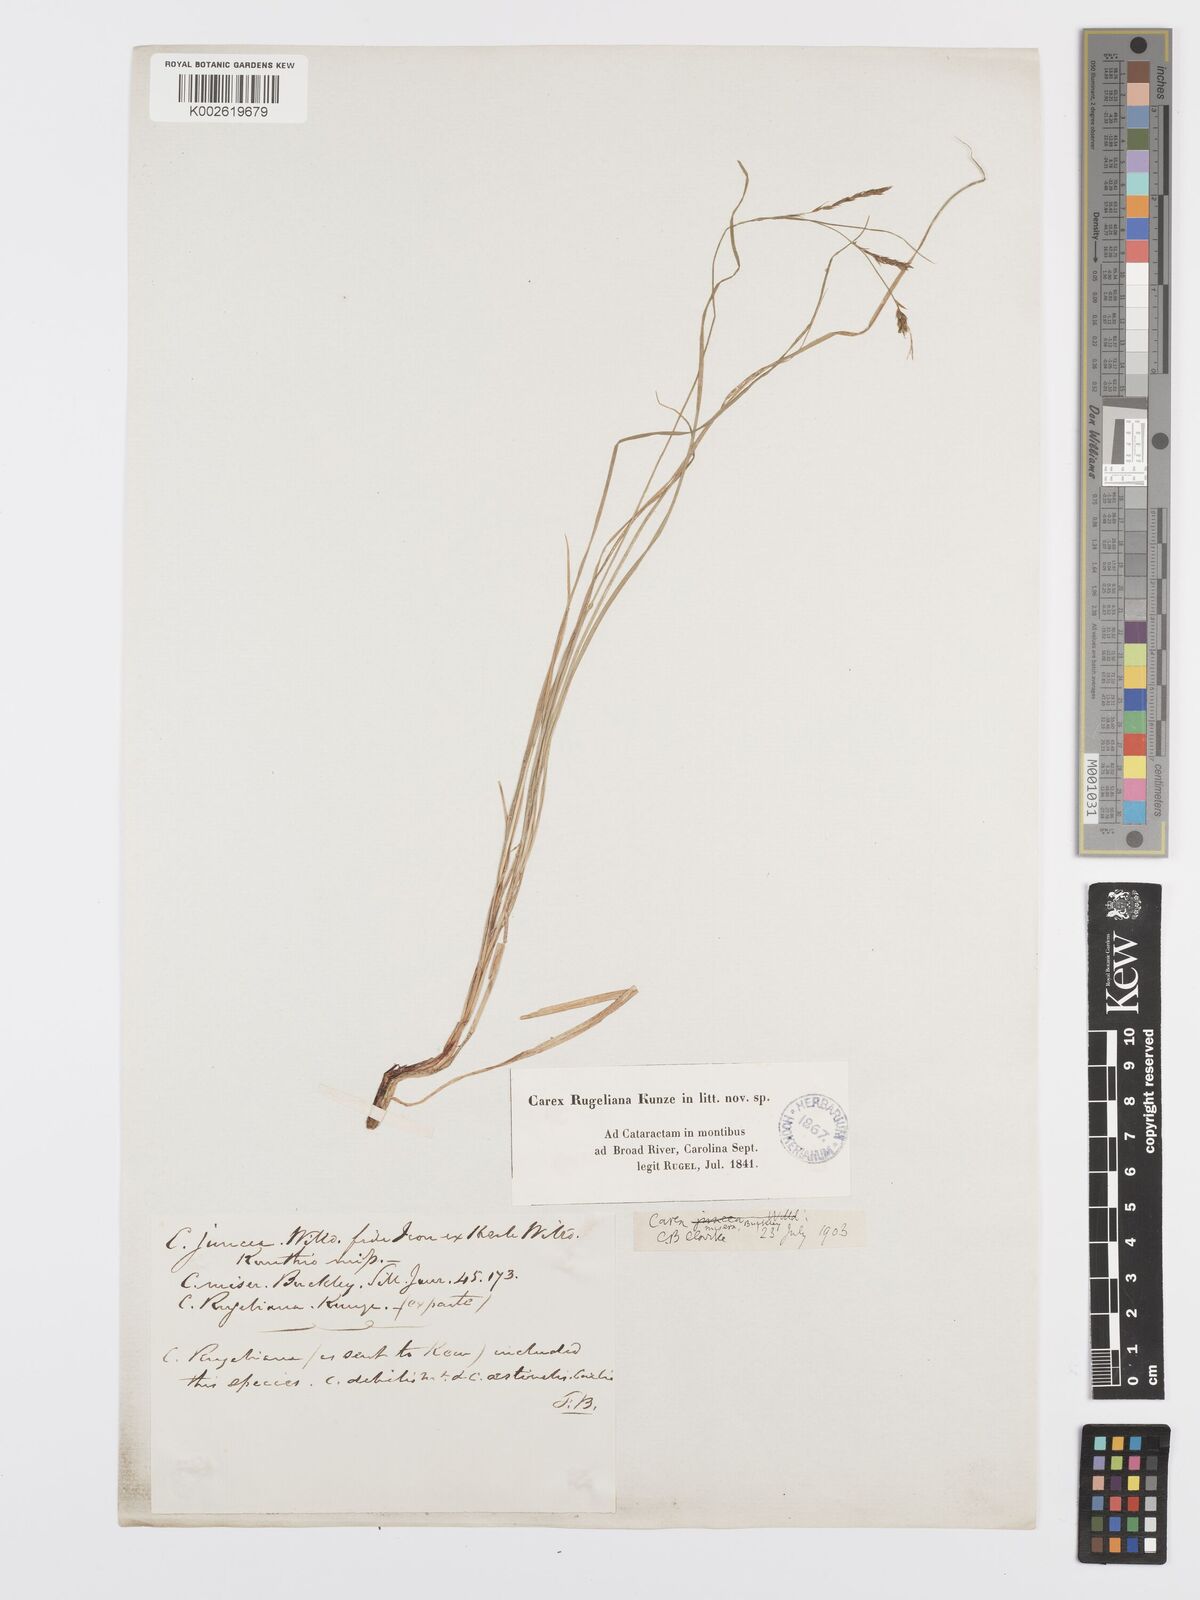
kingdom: Plantae
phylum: Tracheophyta
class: Liliopsida
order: Poales
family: Cyperaceae
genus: Carex
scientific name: Carex misera
